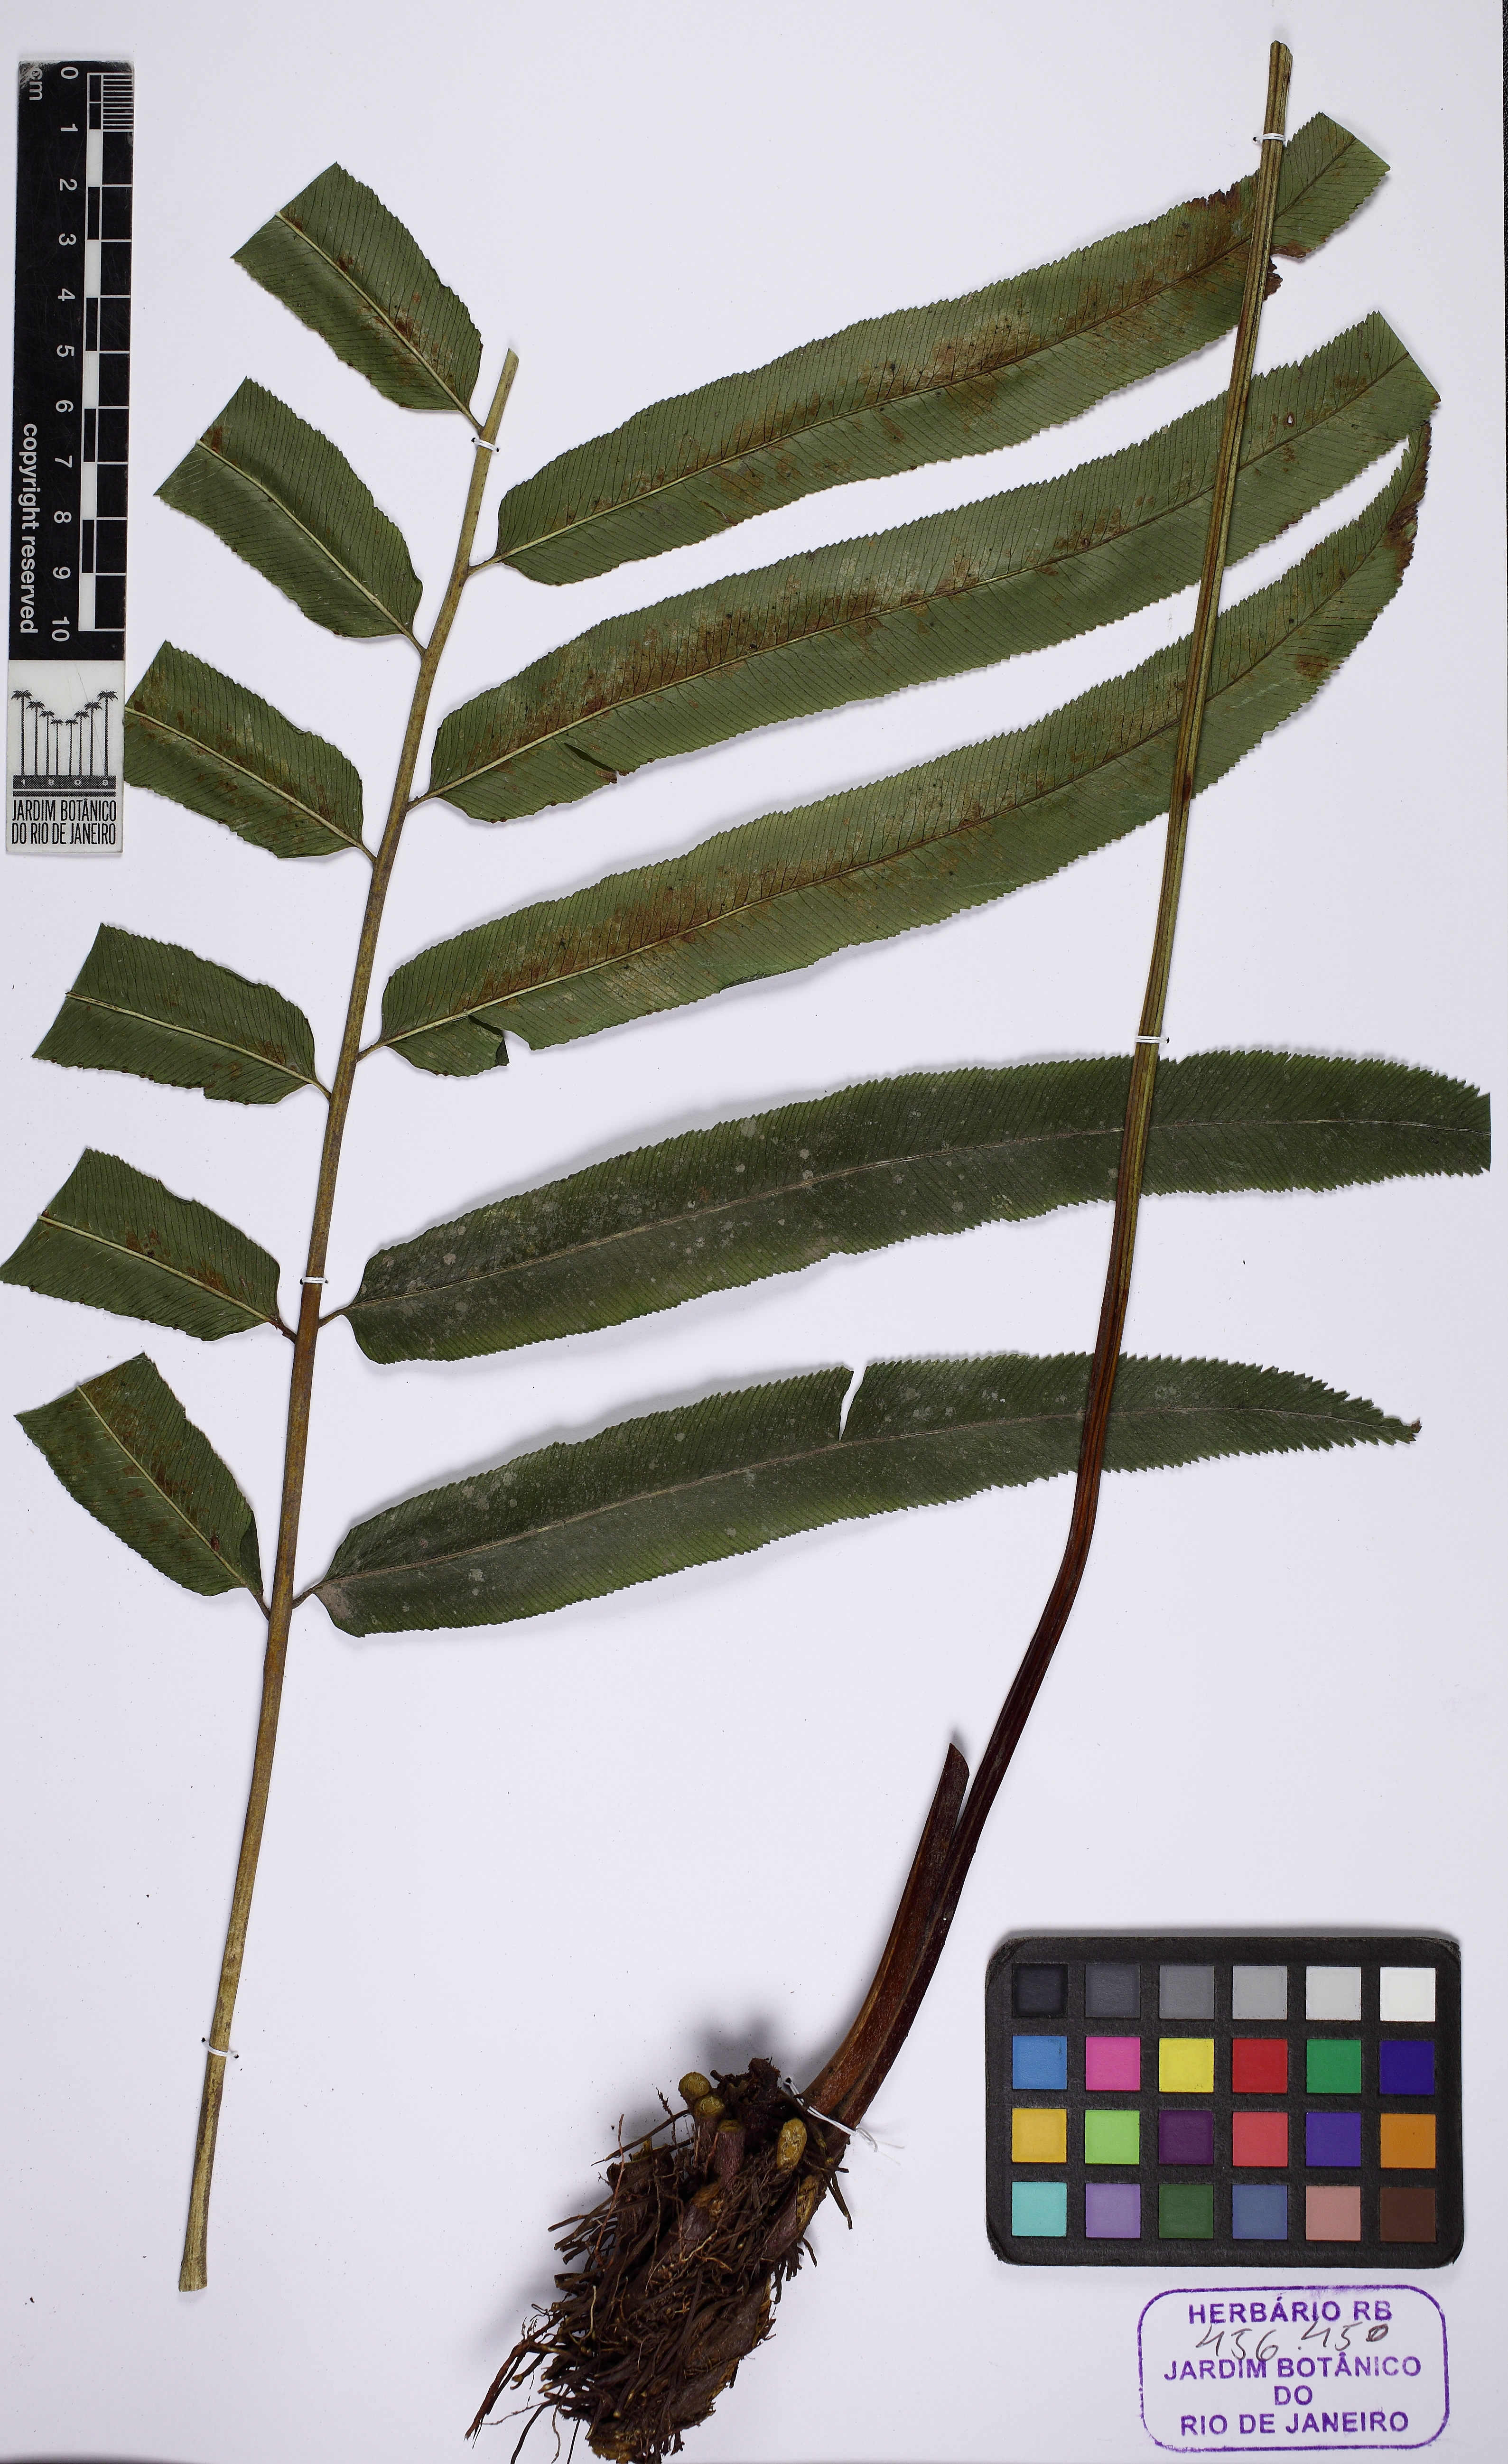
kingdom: Plantae
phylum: Tracheophyta
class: Polypodiopsida
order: Polypodiales
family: Saccolomataceae
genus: Saccoloma
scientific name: Saccoloma elegans
